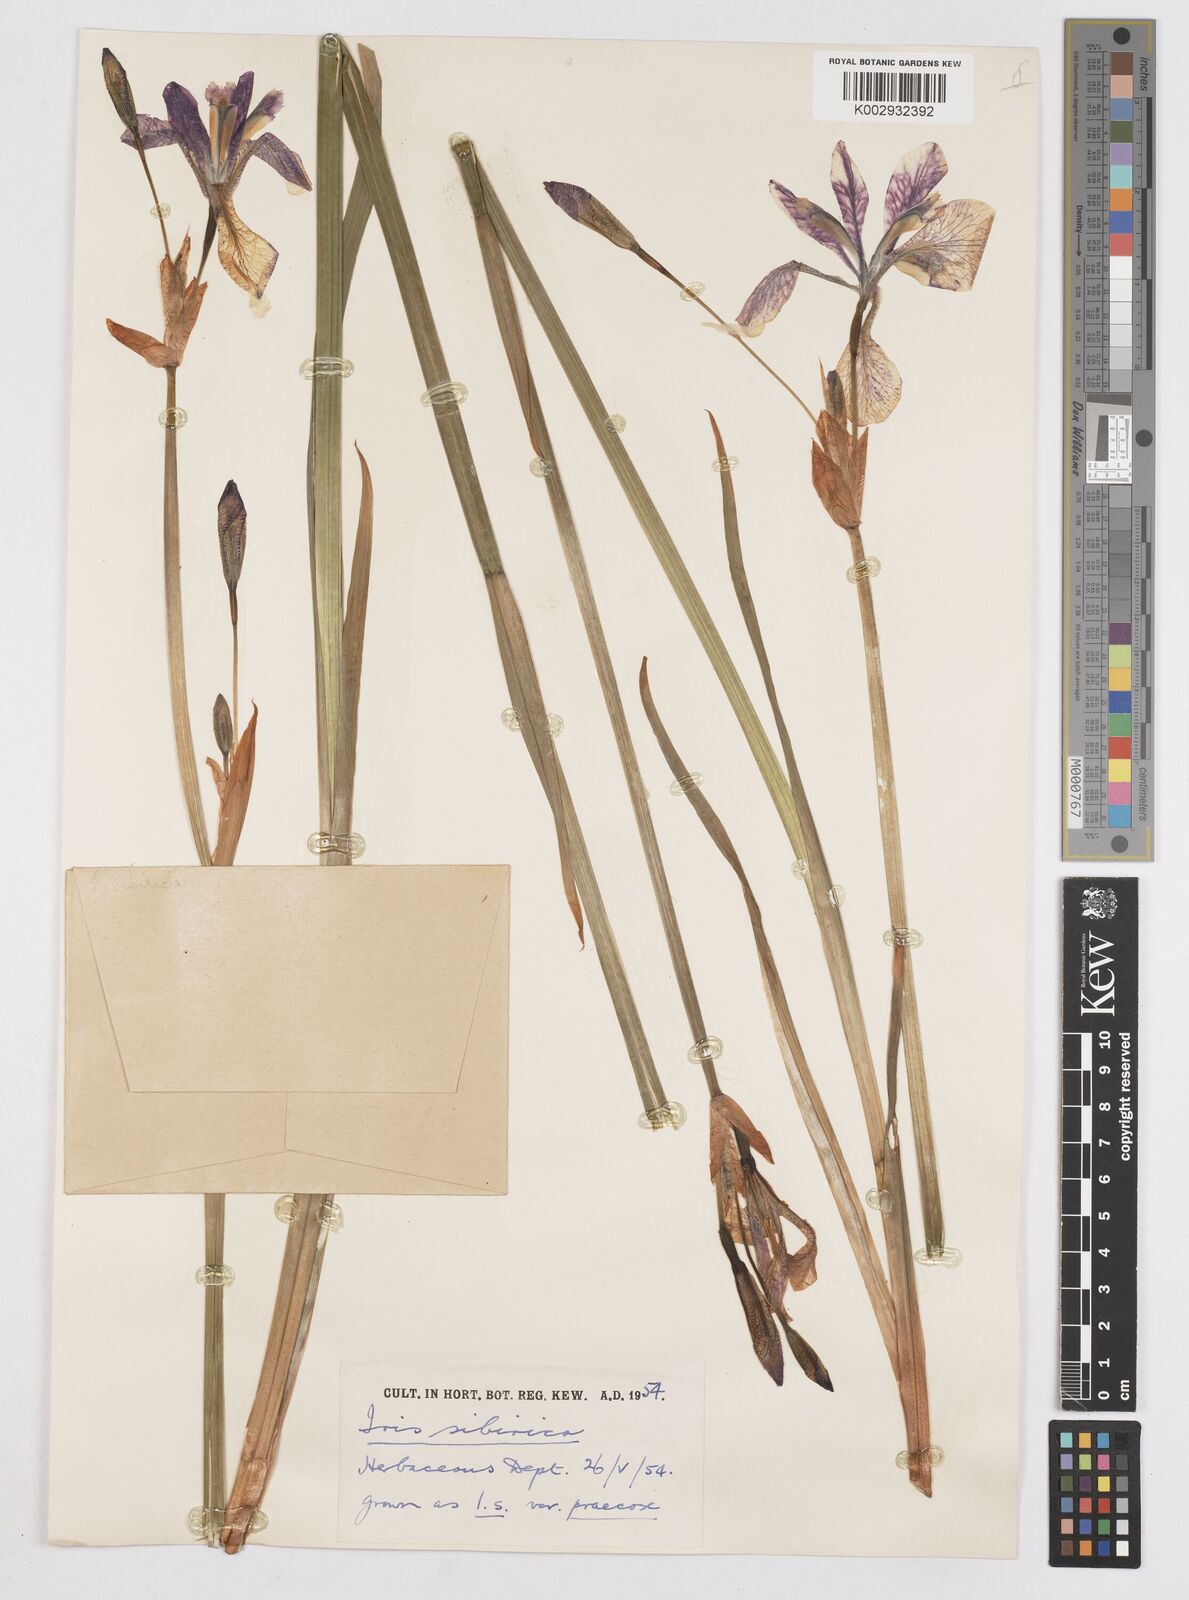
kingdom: Plantae
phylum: Tracheophyta
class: Liliopsida
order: Asparagales
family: Iridaceae
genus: Iris
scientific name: Iris sibirica
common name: Siberian iris
